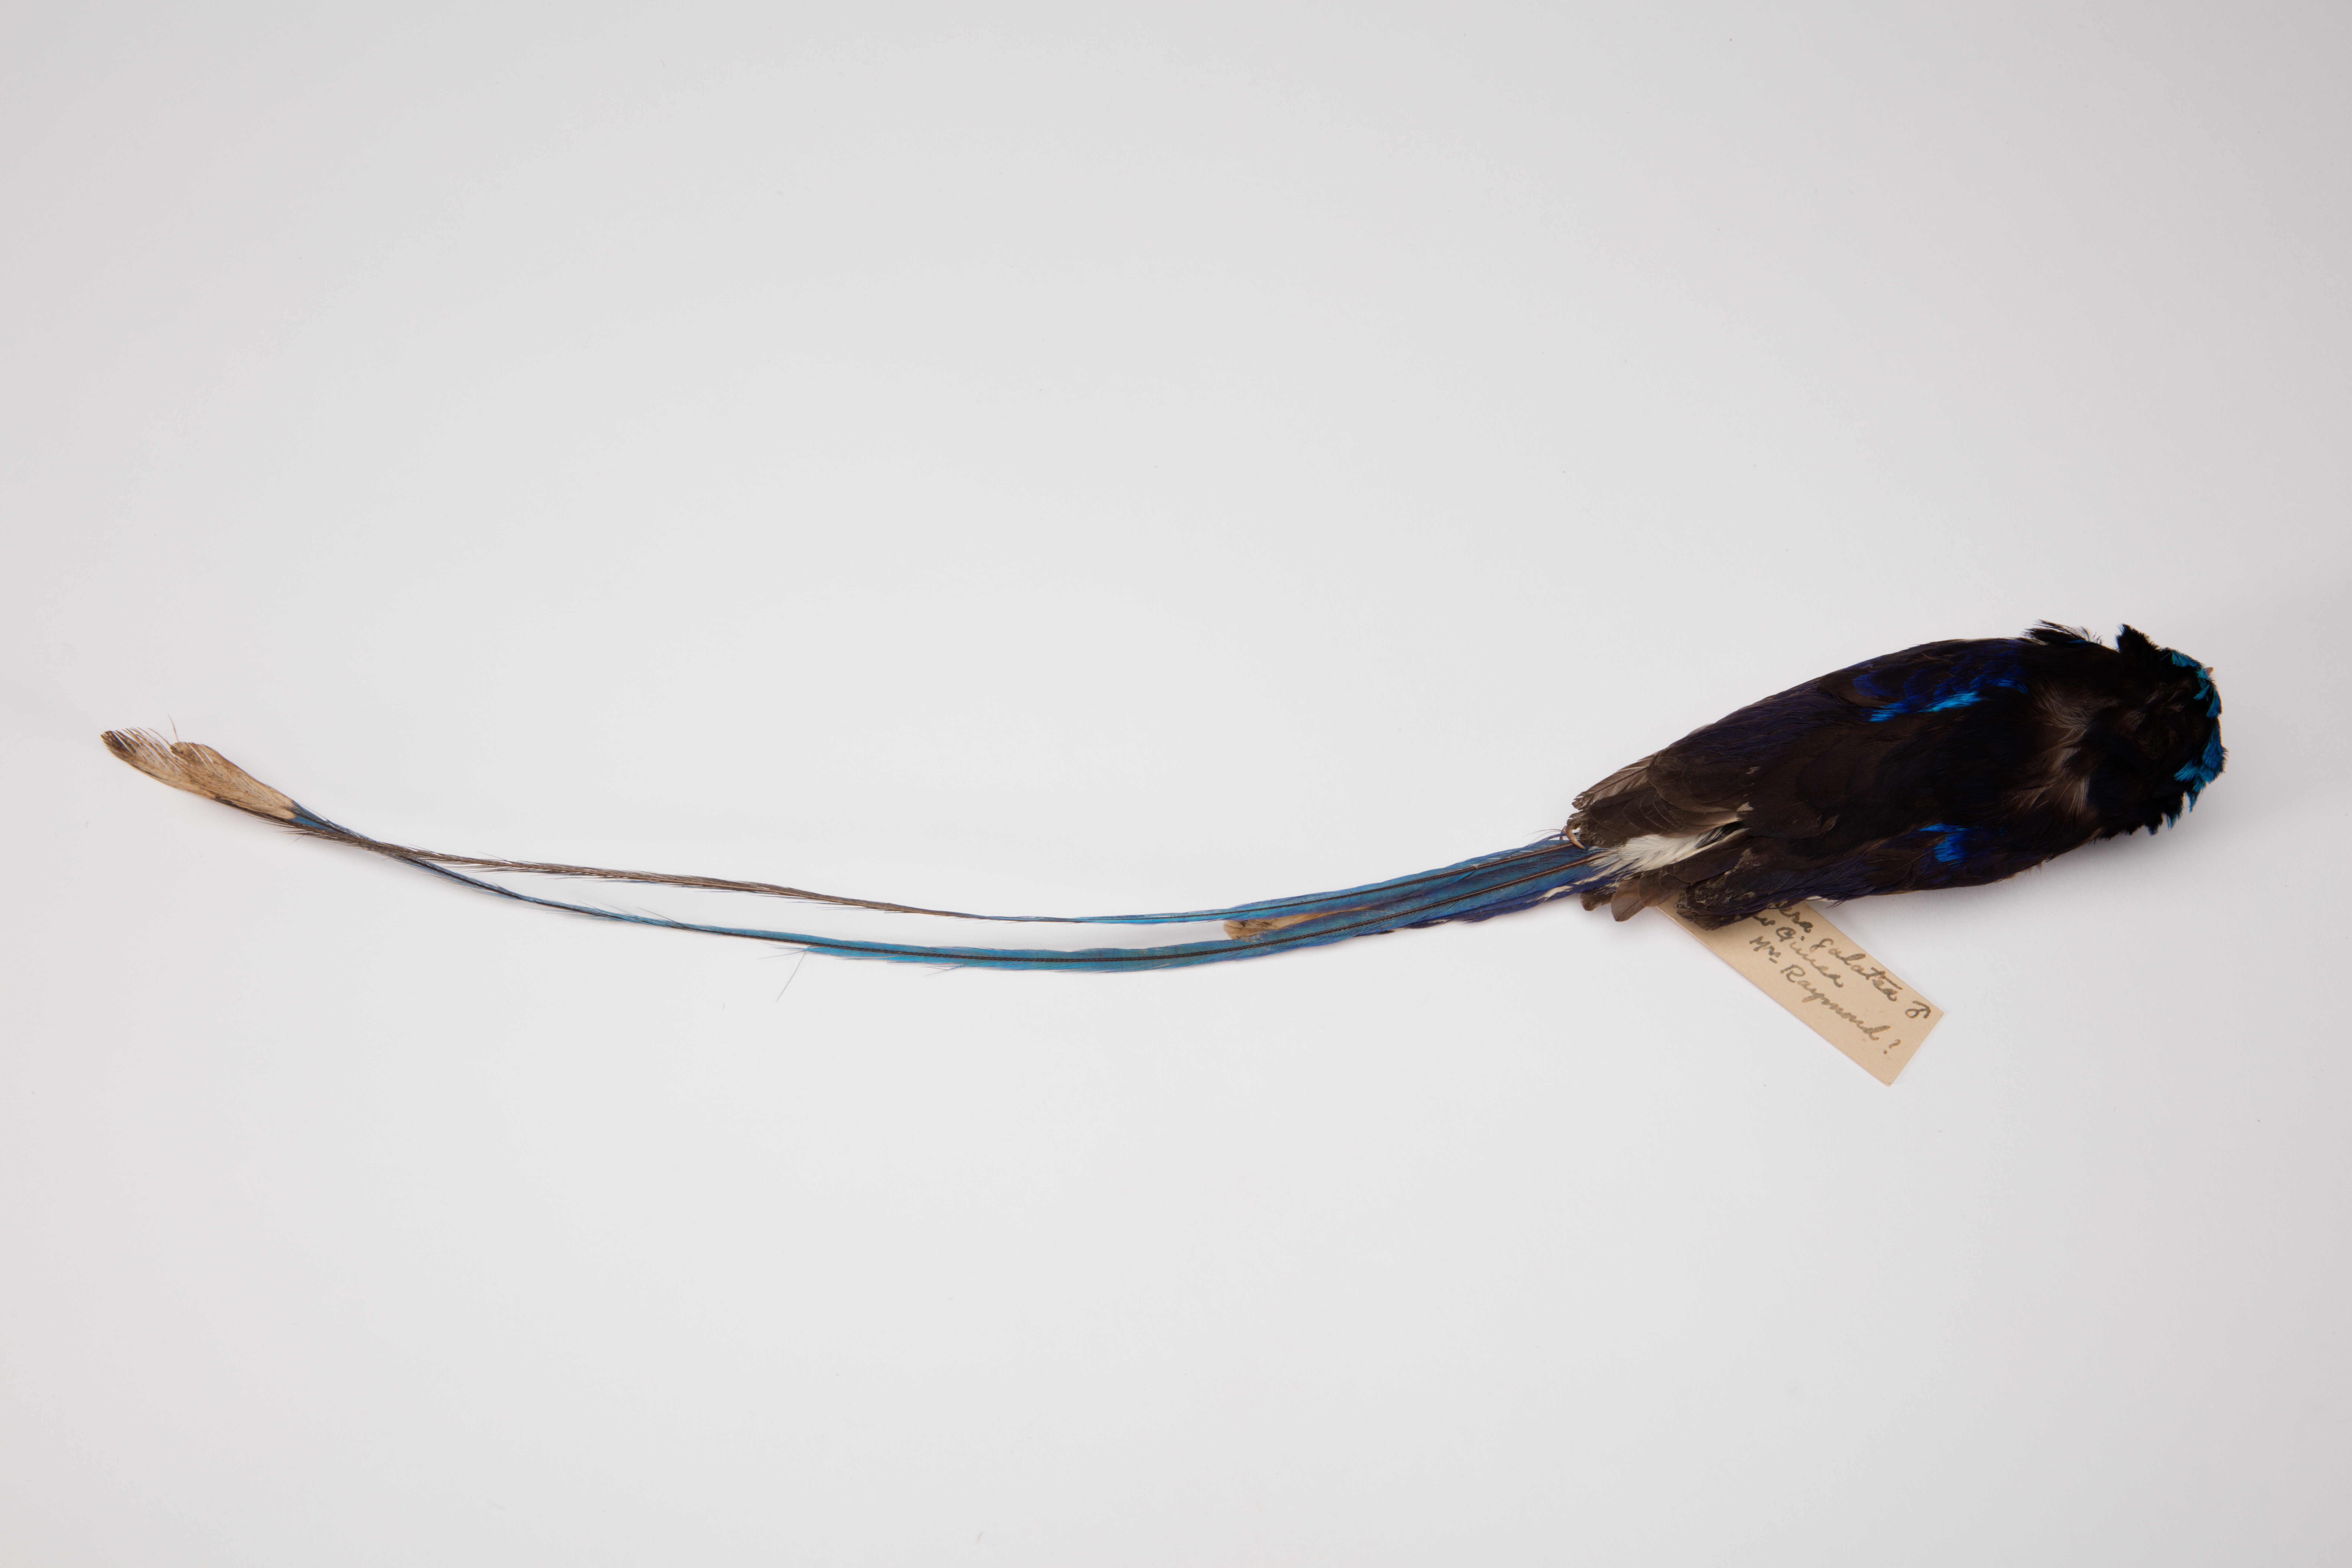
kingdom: Animalia
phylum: Chordata
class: Aves
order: Coraciiformes
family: Alcedinidae
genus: Tanysiptera
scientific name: Tanysiptera galatea
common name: Common paradise-kingfisher
